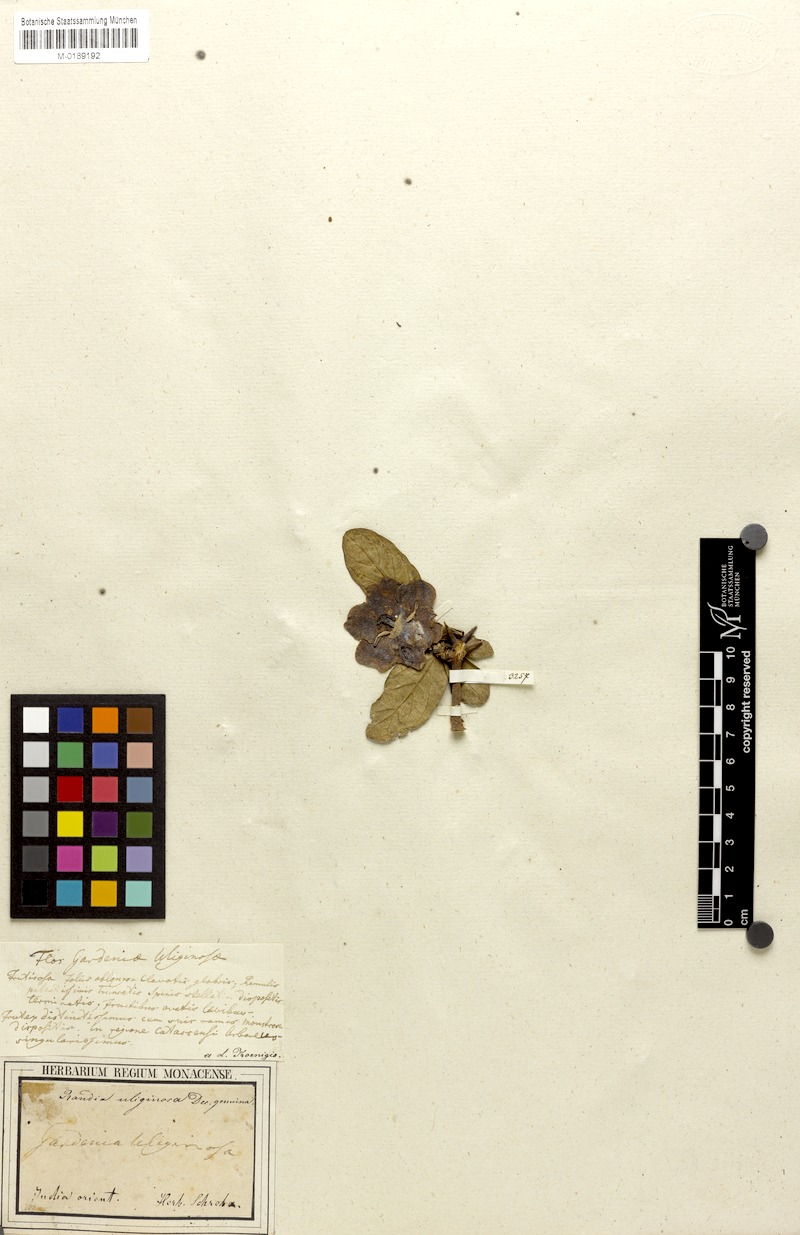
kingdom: Plantae
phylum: Tracheophyta
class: Magnoliopsida
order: Gentianales
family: Rubiaceae
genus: Tamilnadia
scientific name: Tamilnadia uliginosa
